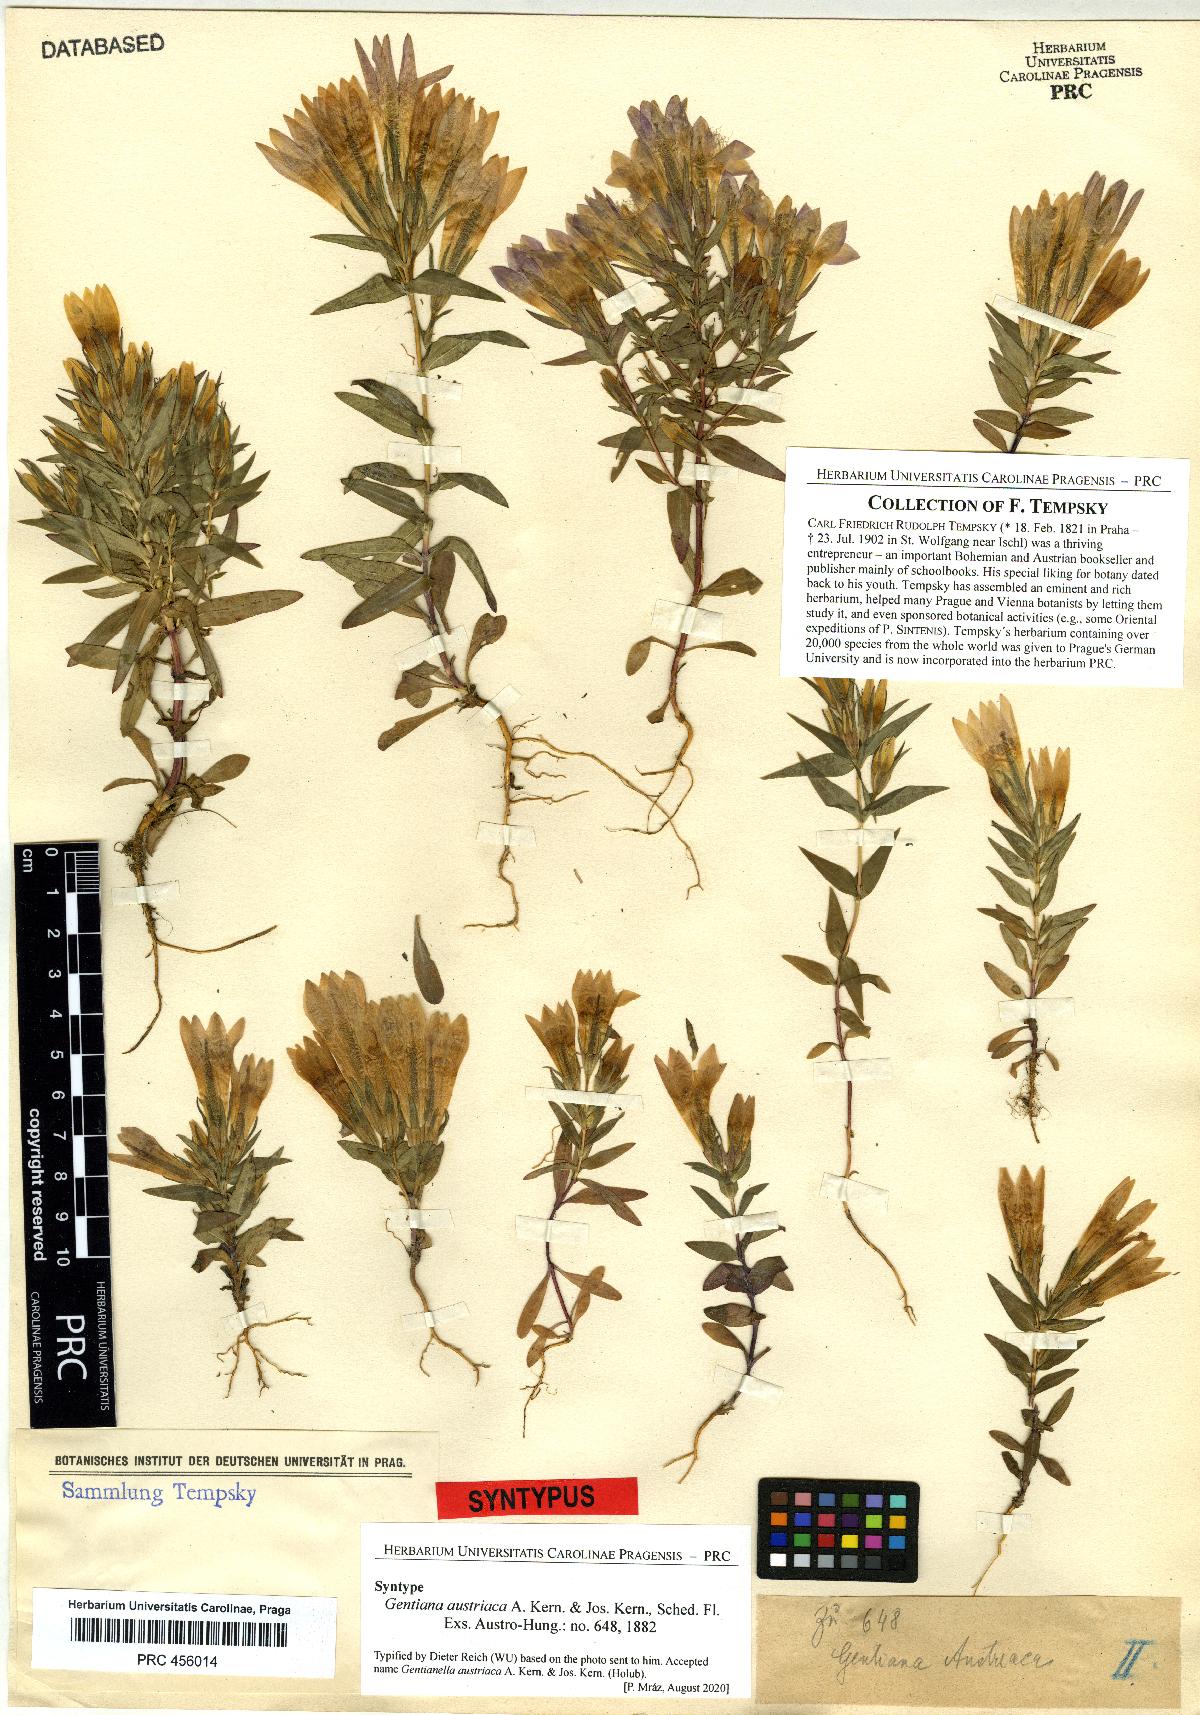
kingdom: Plantae
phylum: Tracheophyta
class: Magnoliopsida
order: Gentianales
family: Gentianaceae
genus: Gentianella
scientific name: Gentianella austriaca
